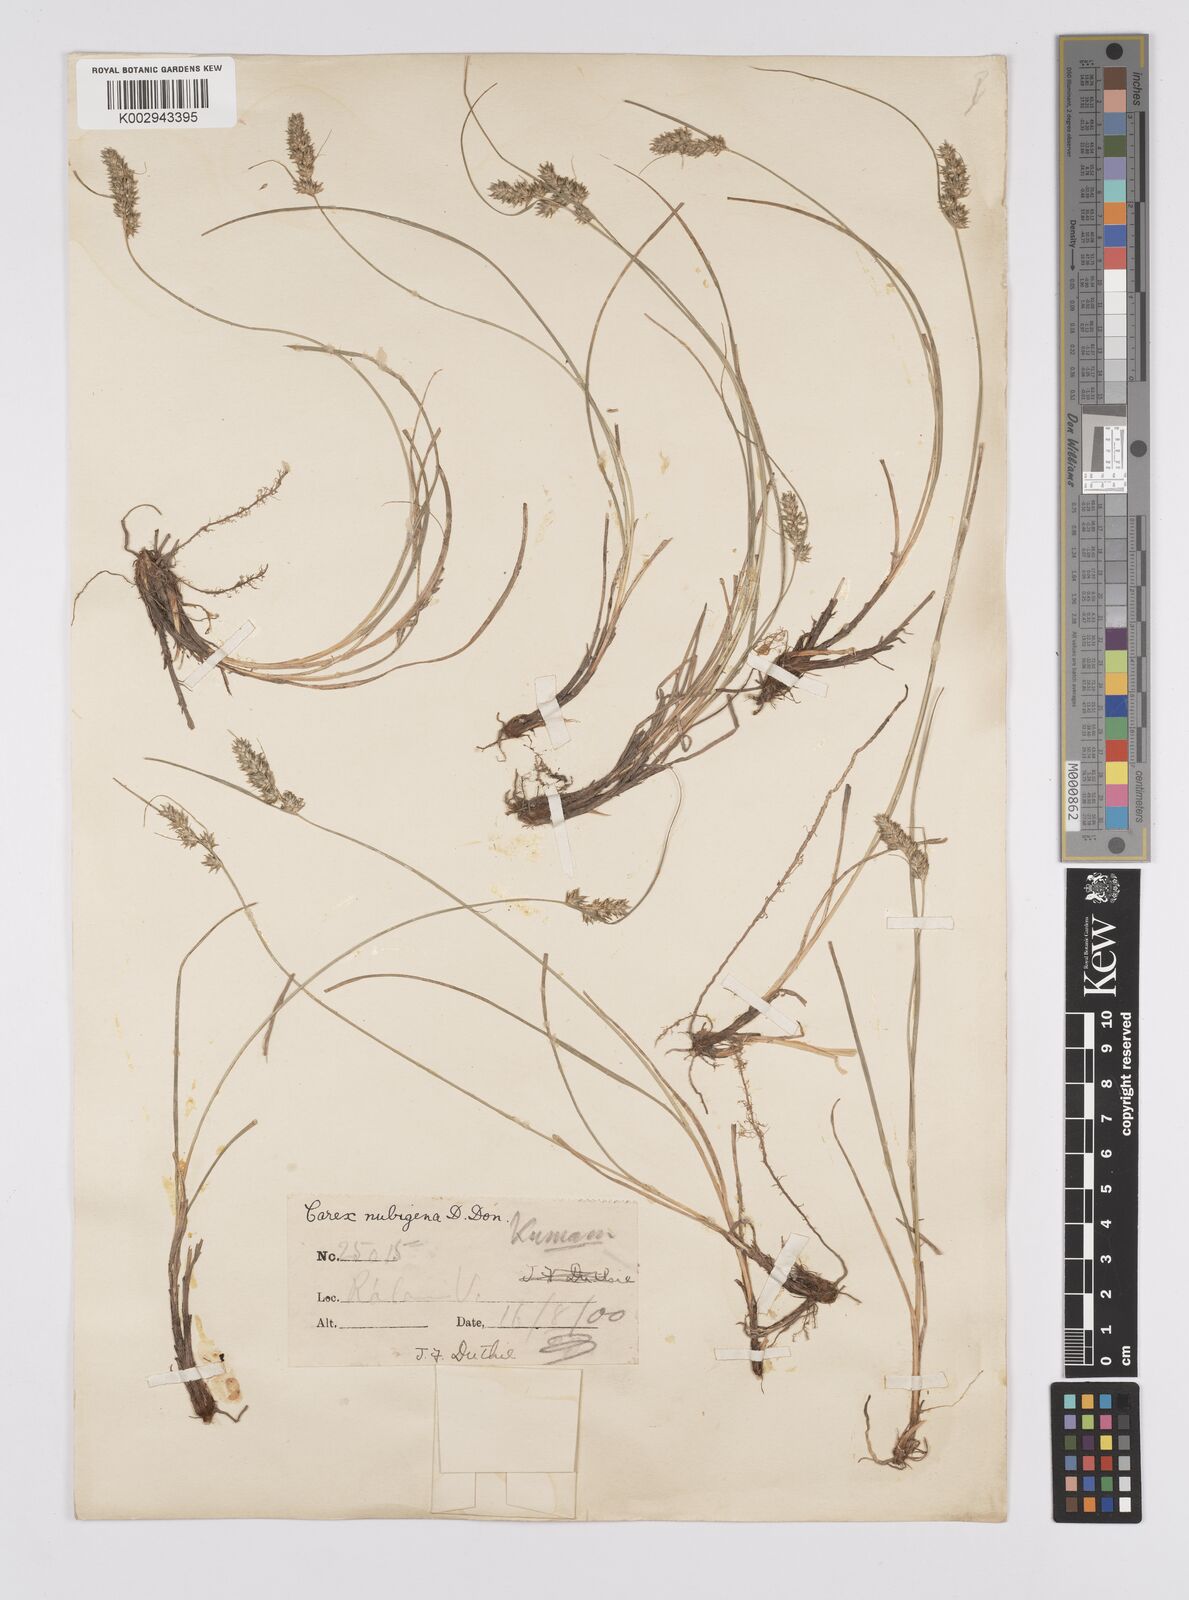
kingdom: Plantae
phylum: Tracheophyta
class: Liliopsida
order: Poales
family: Cyperaceae
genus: Carex
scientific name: Carex nubigena
